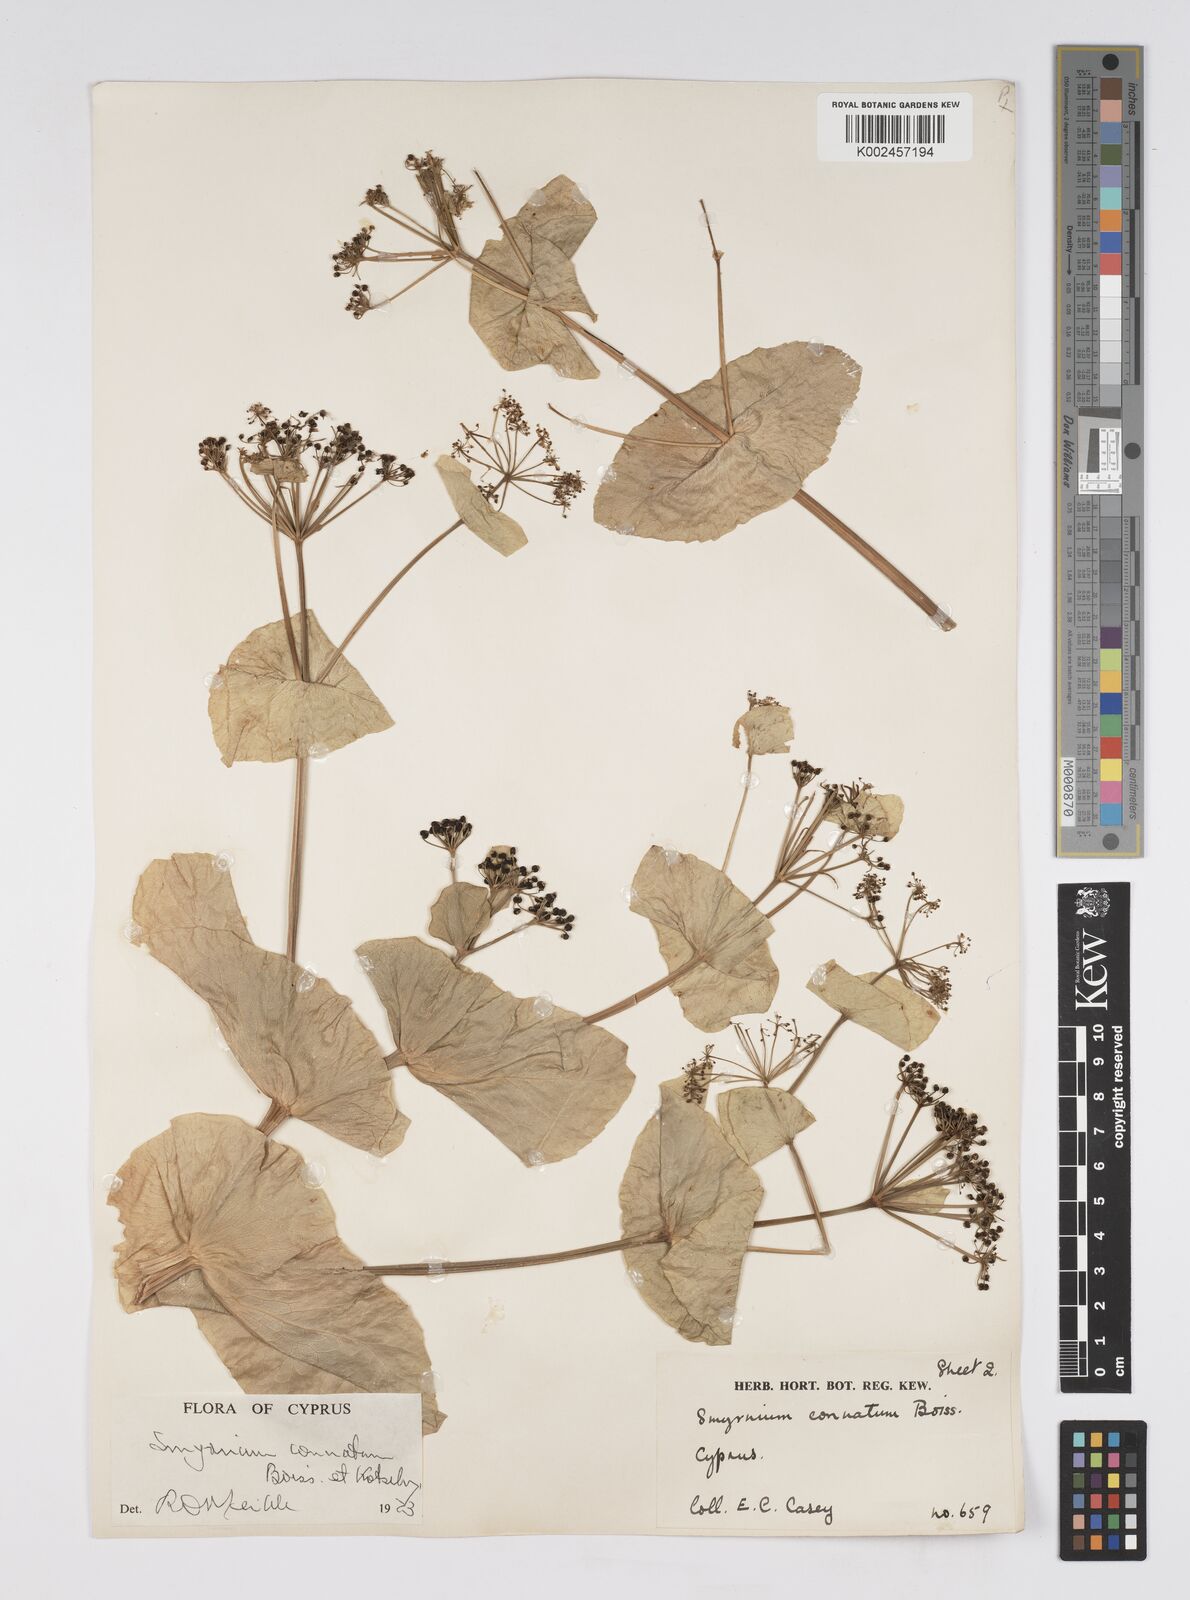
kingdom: Plantae
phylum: Tracheophyta
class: Magnoliopsida
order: Apiales
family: Apiaceae
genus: Smyrnium
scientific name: Smyrnium connatum
